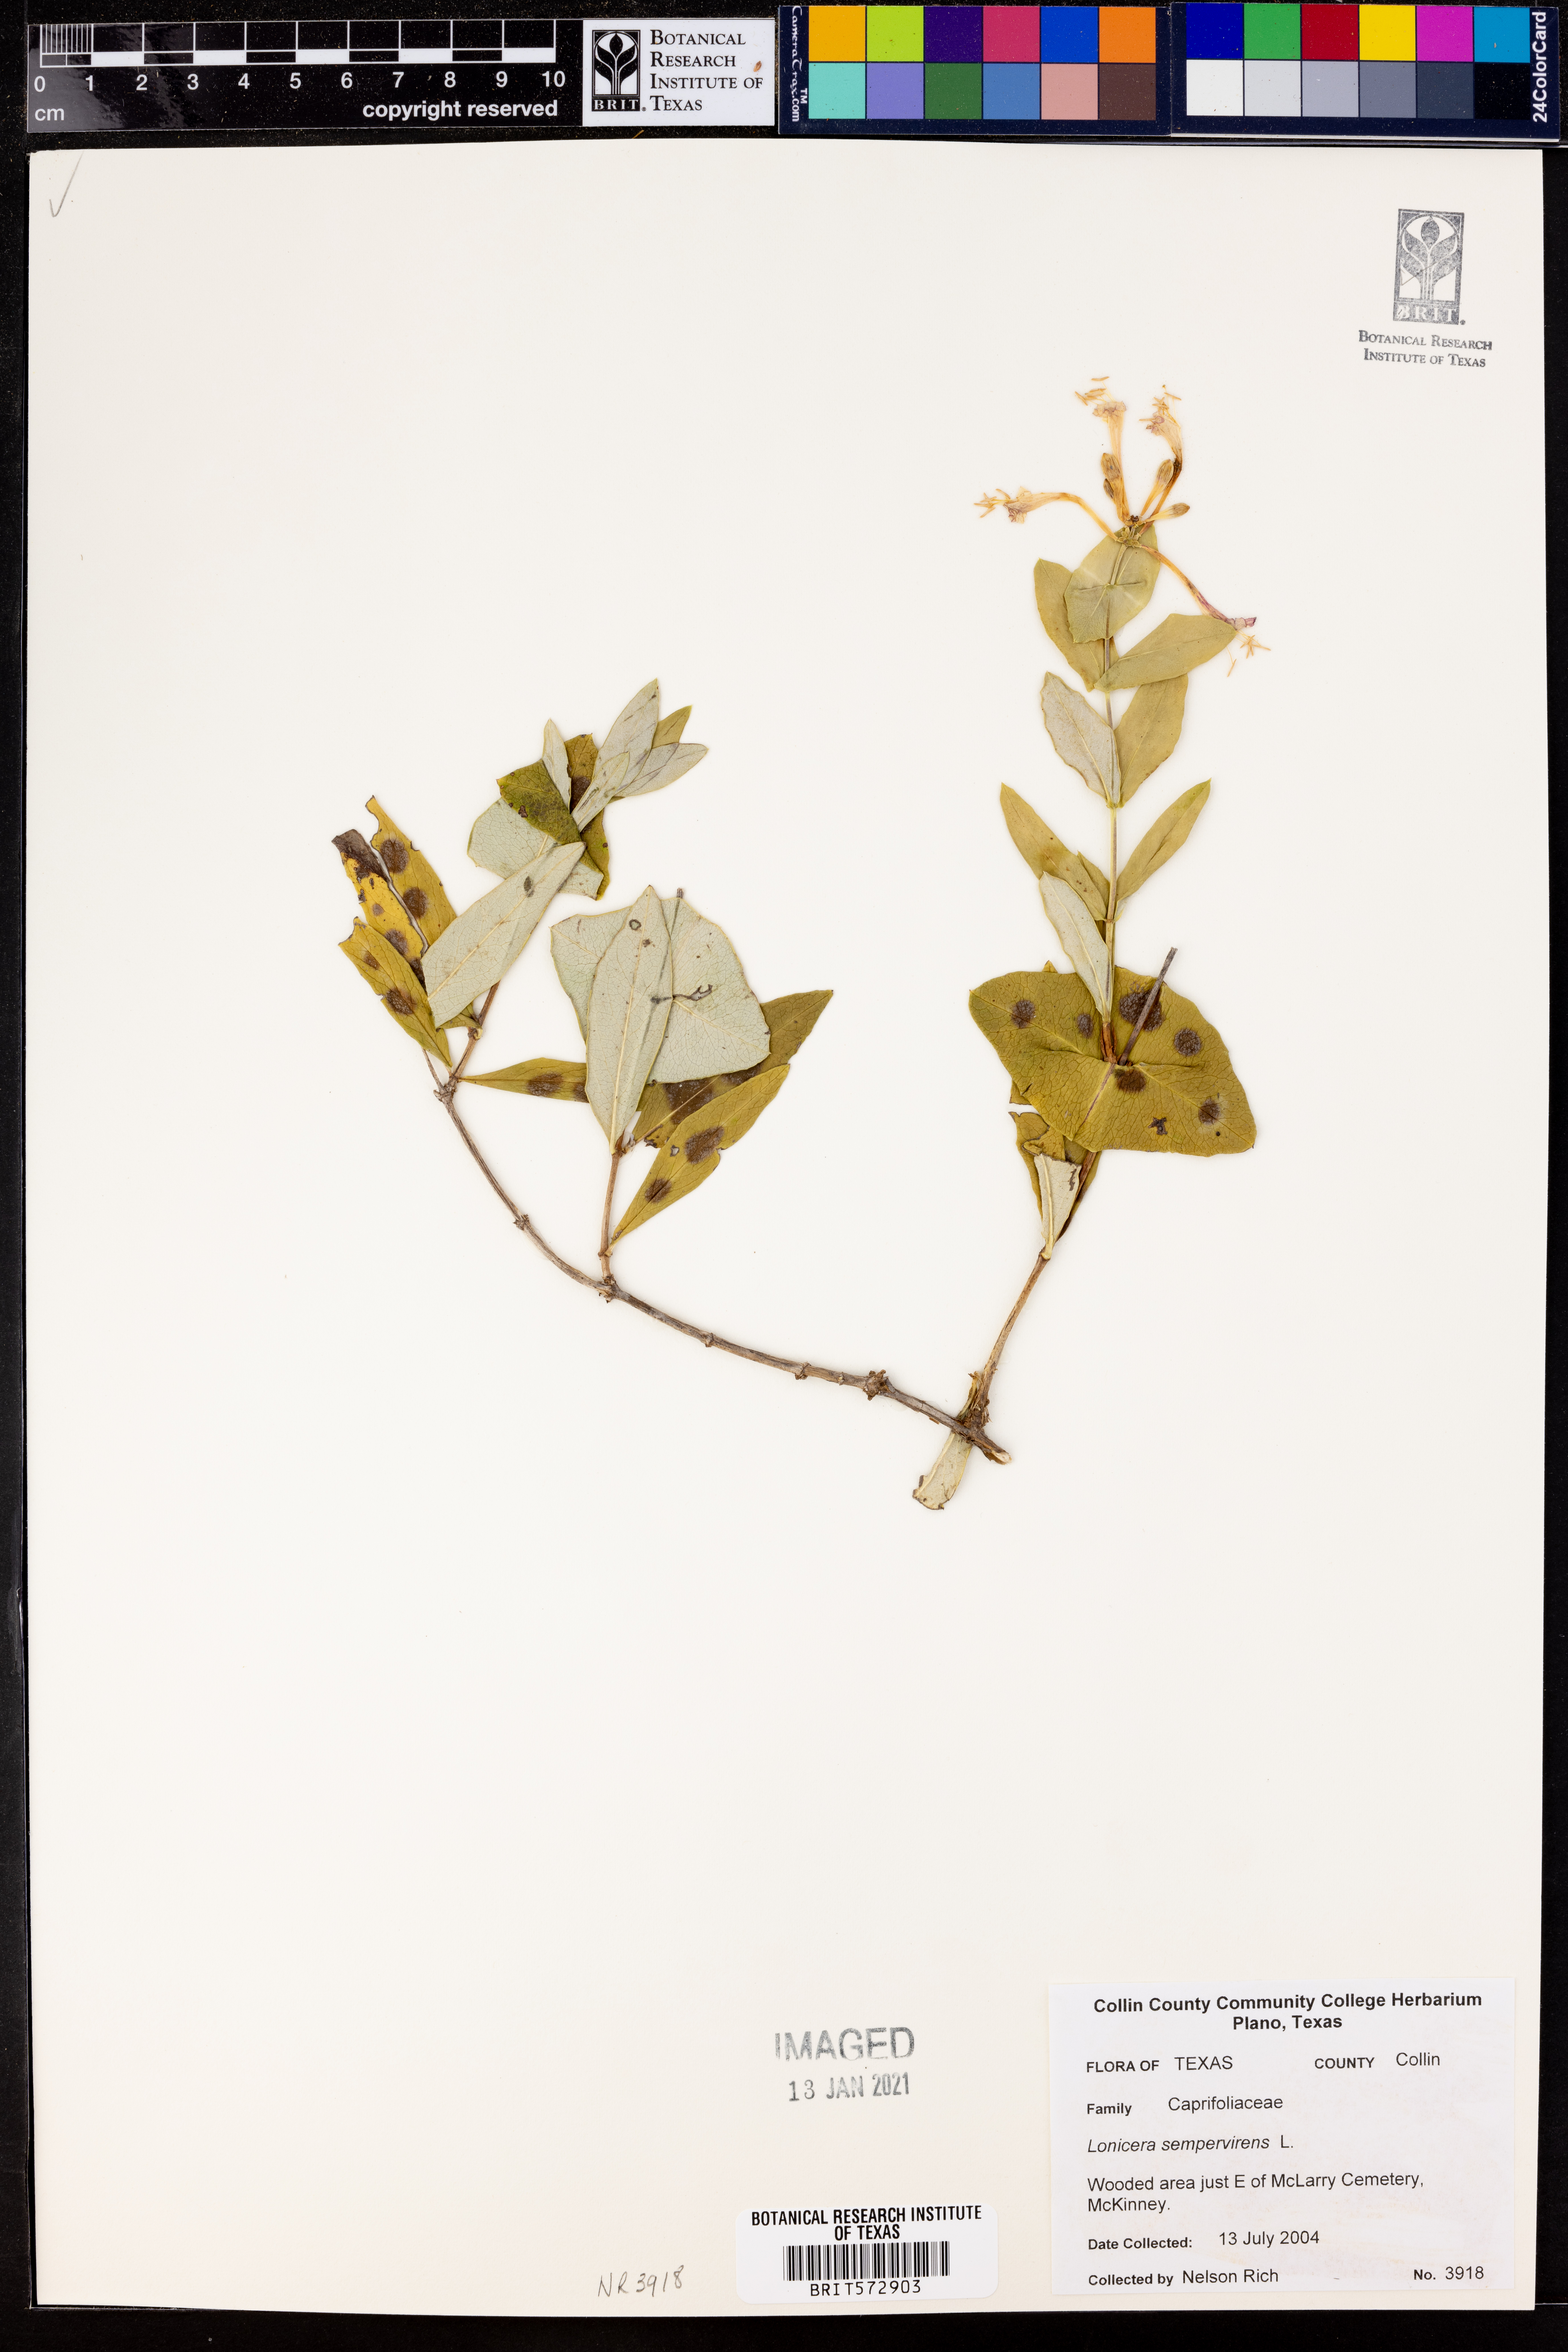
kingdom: Plantae
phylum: Tracheophyta
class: Magnoliopsida
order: Dipsacales
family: Caprifoliaceae
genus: Lonicera
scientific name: Lonicera sempervirens
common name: Coral honeysuckle
